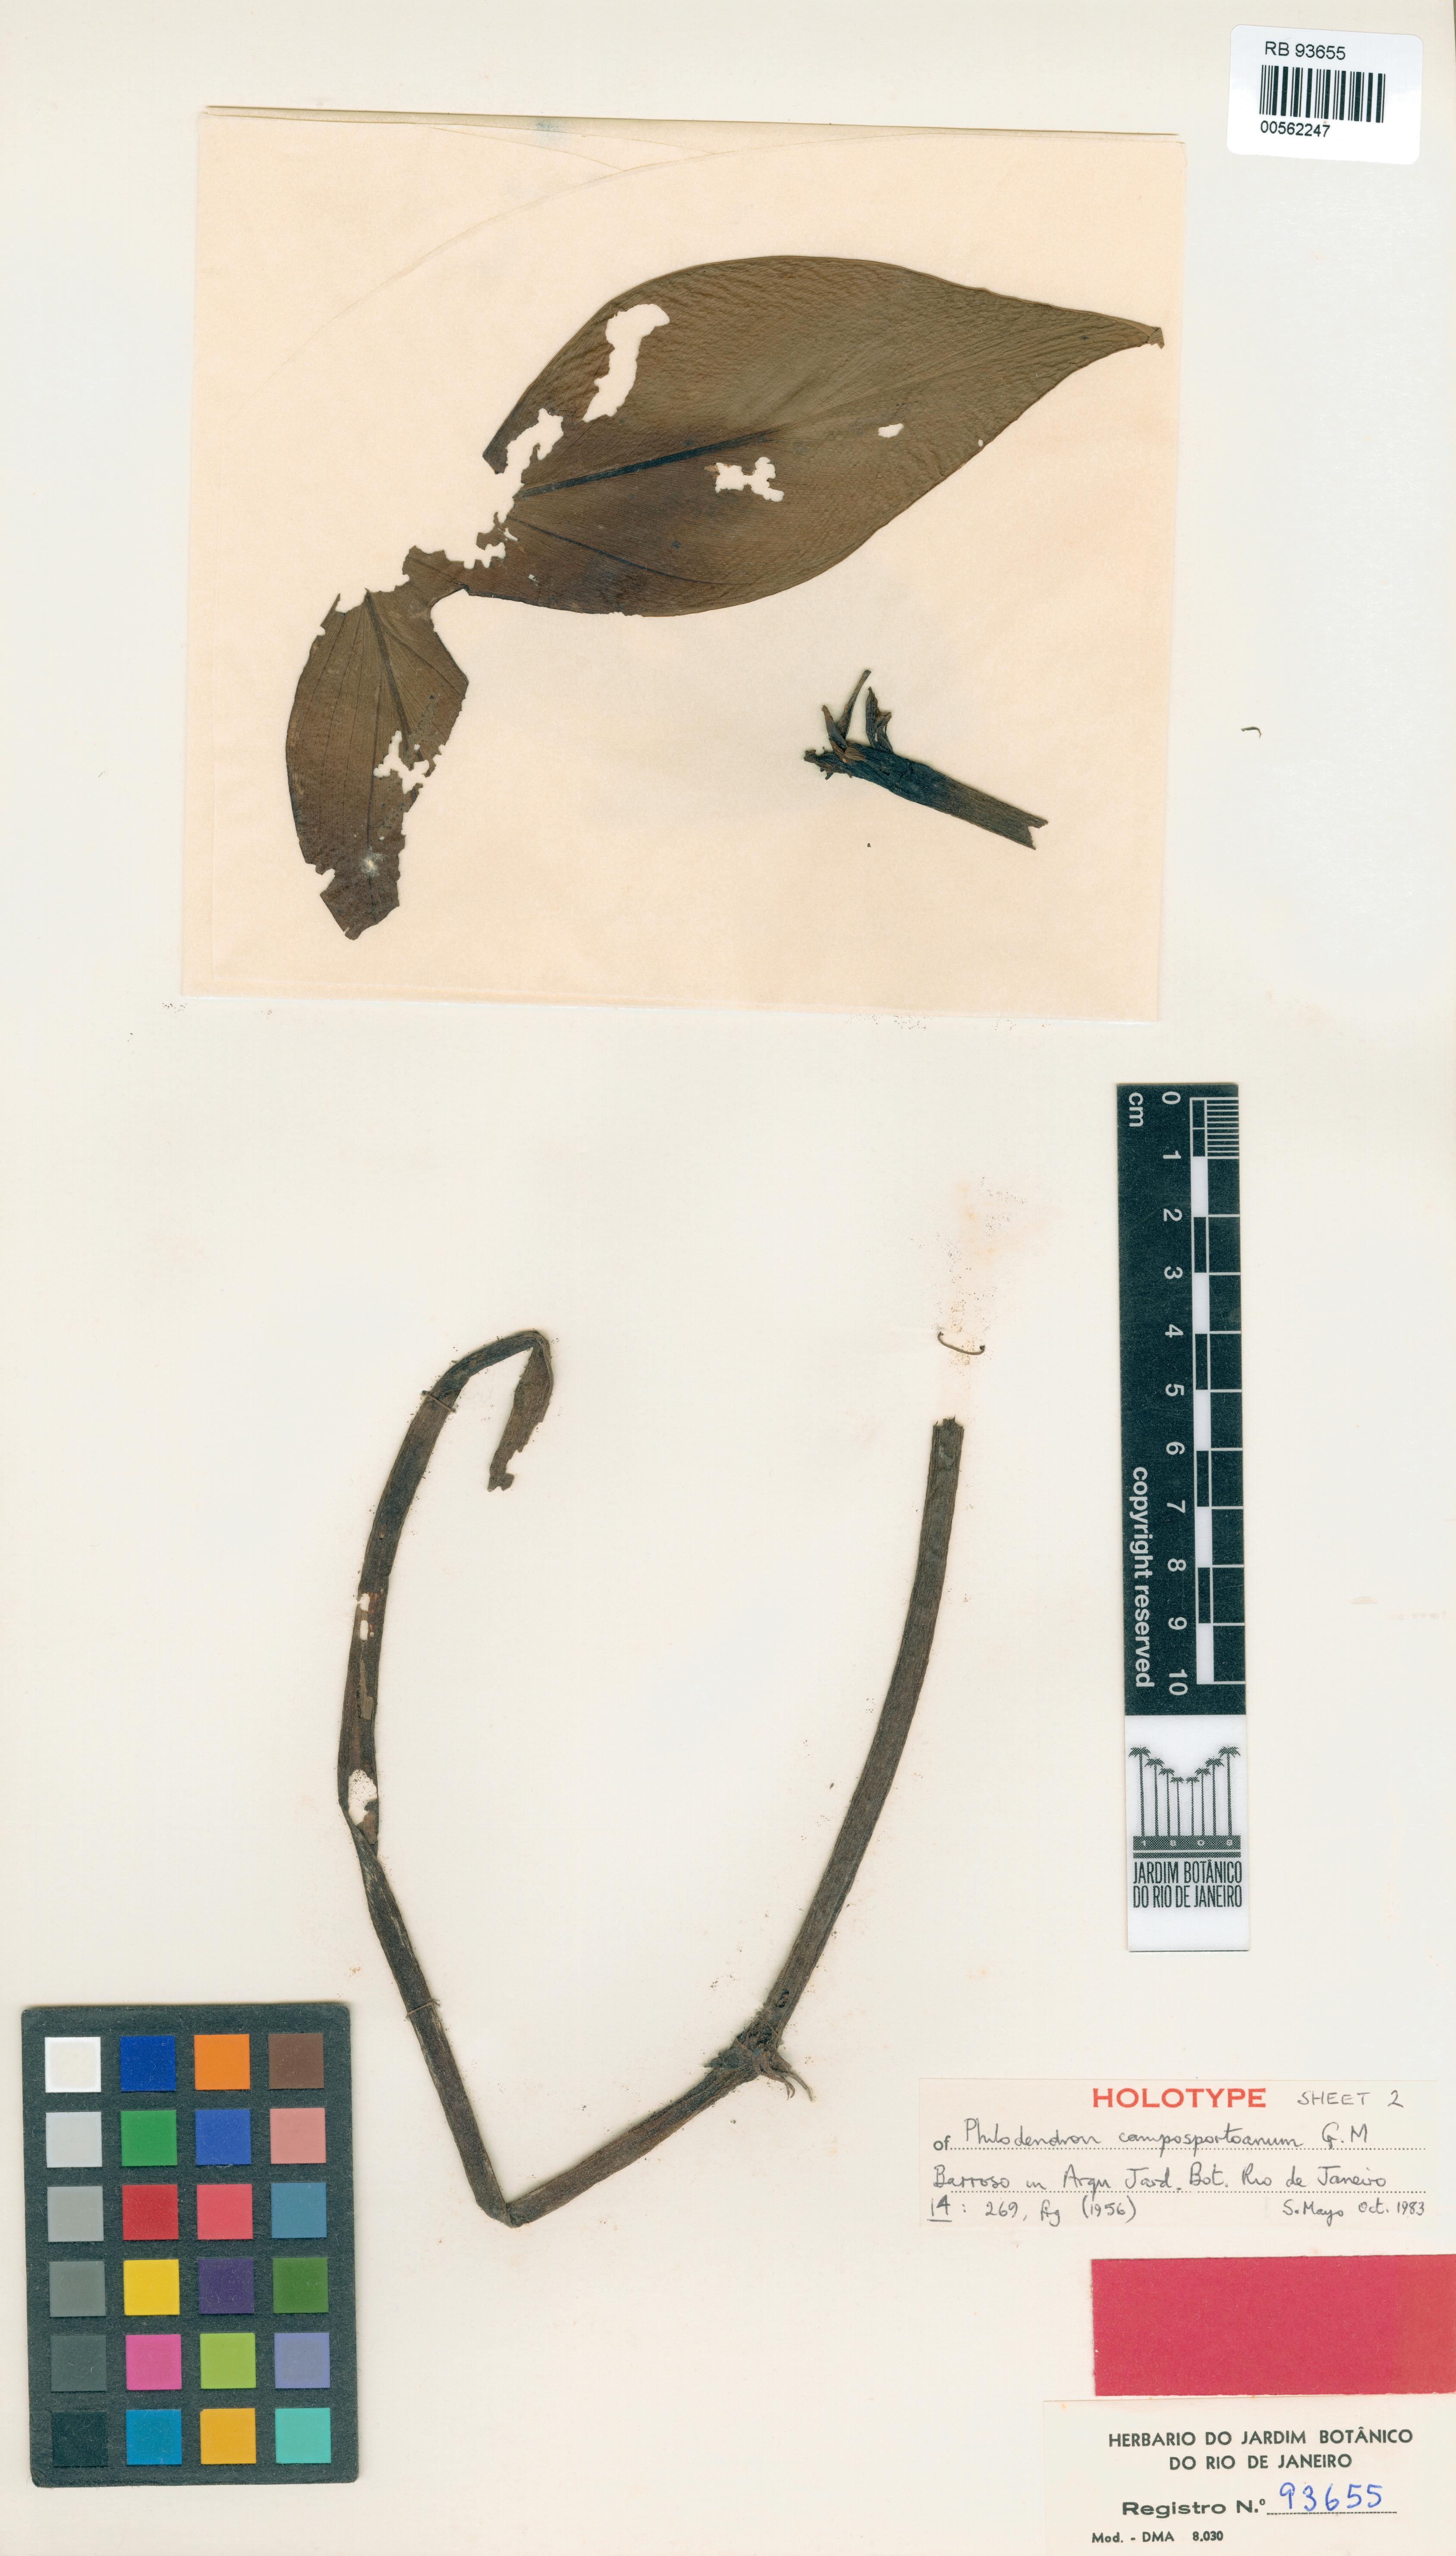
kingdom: Plantae
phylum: Tracheophyta
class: Liliopsida
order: Alismatales
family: Araceae
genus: Philodendron
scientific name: Philodendron camposportoanum
